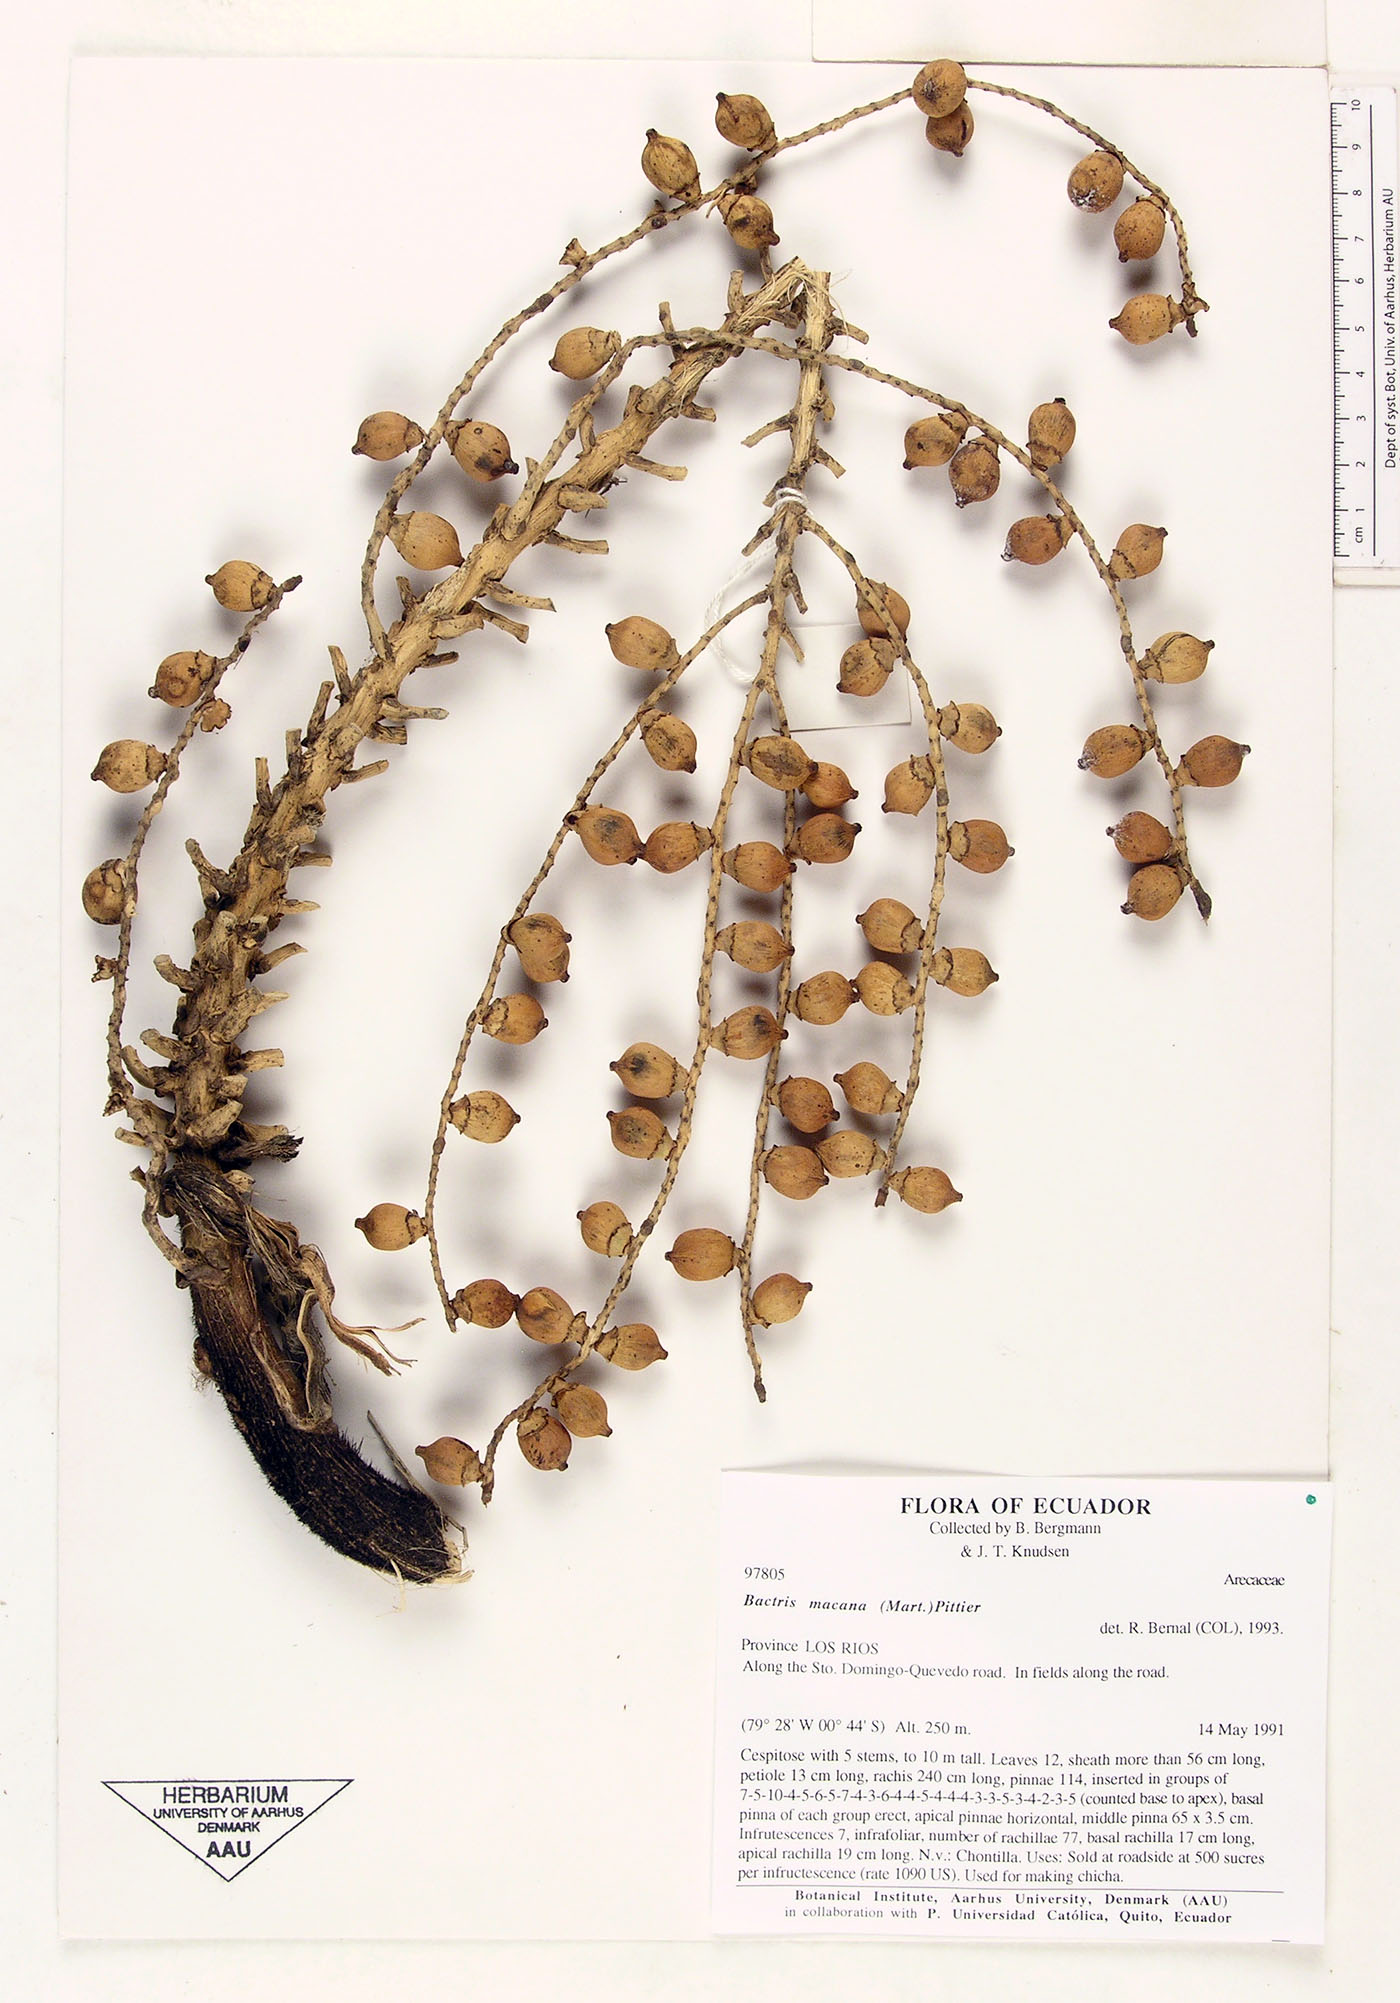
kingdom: Plantae
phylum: Tracheophyta
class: Liliopsida
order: Arecales
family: Arecaceae
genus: Bactris
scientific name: Bactris gasipaes
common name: Peach palm
